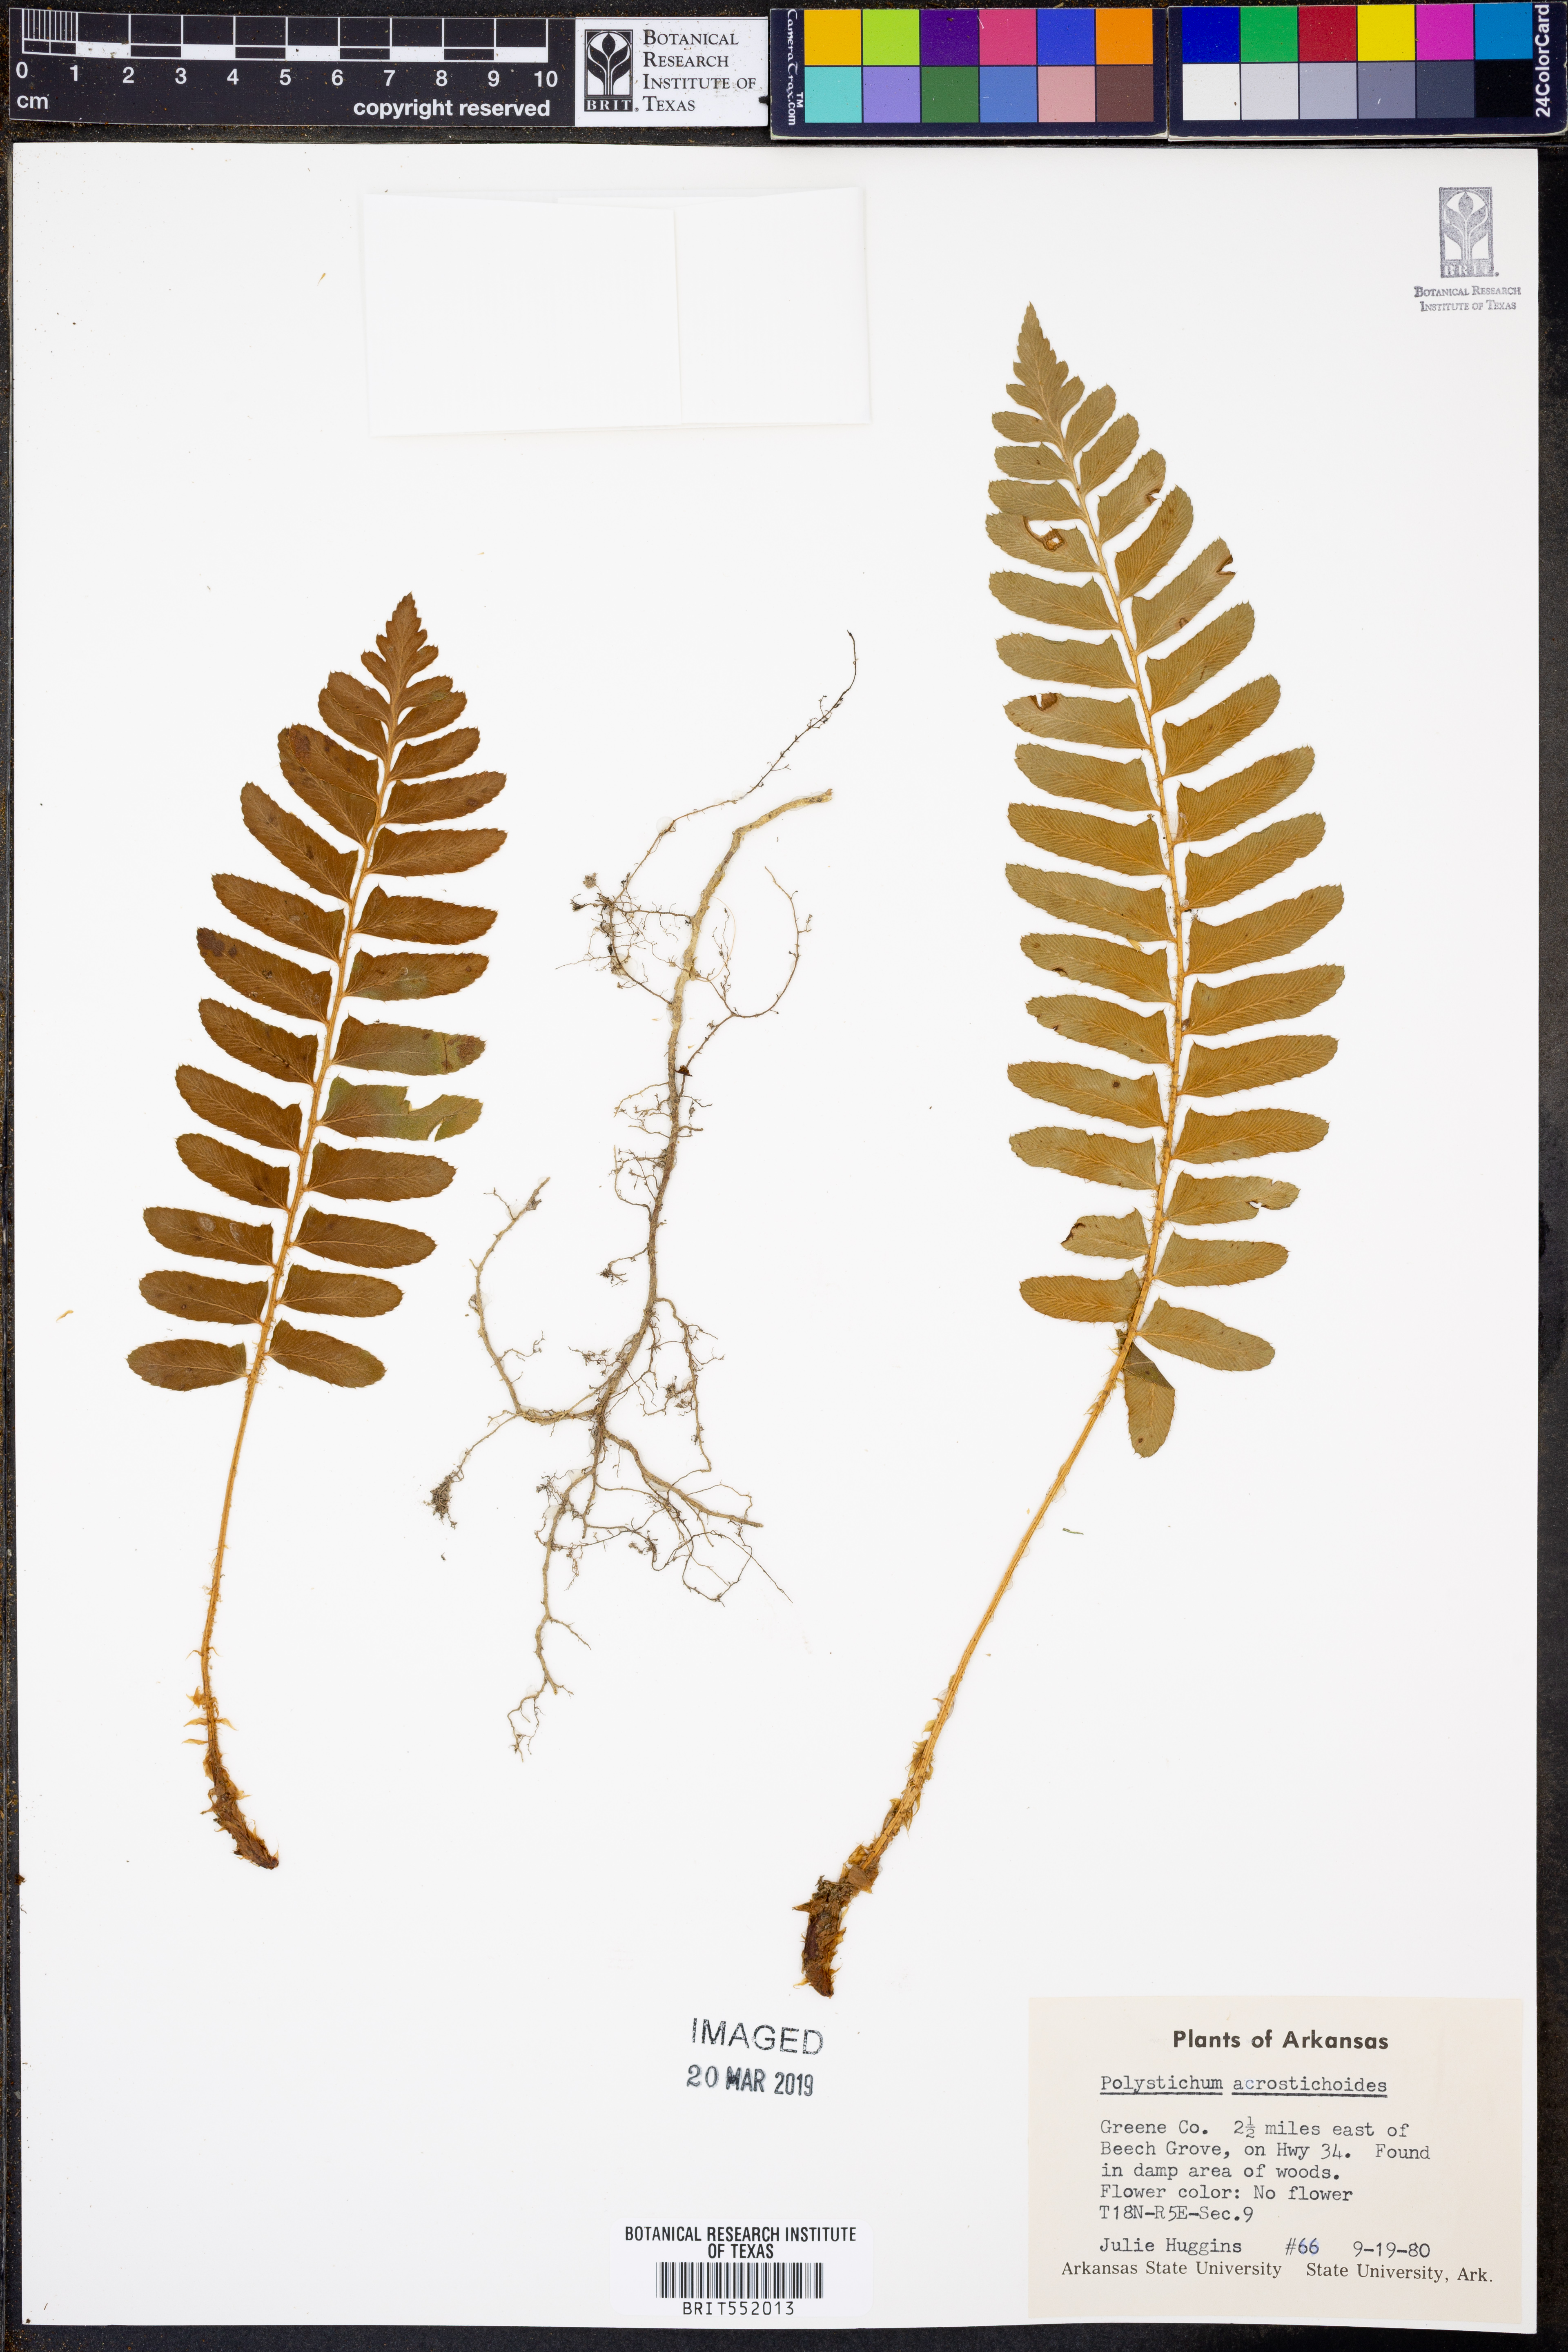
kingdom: Plantae
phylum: Tracheophyta
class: Polypodiopsida
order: Polypodiales
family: Dryopteridaceae
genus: Polystichum
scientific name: Polystichum acrostichoides
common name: Christmas fern
